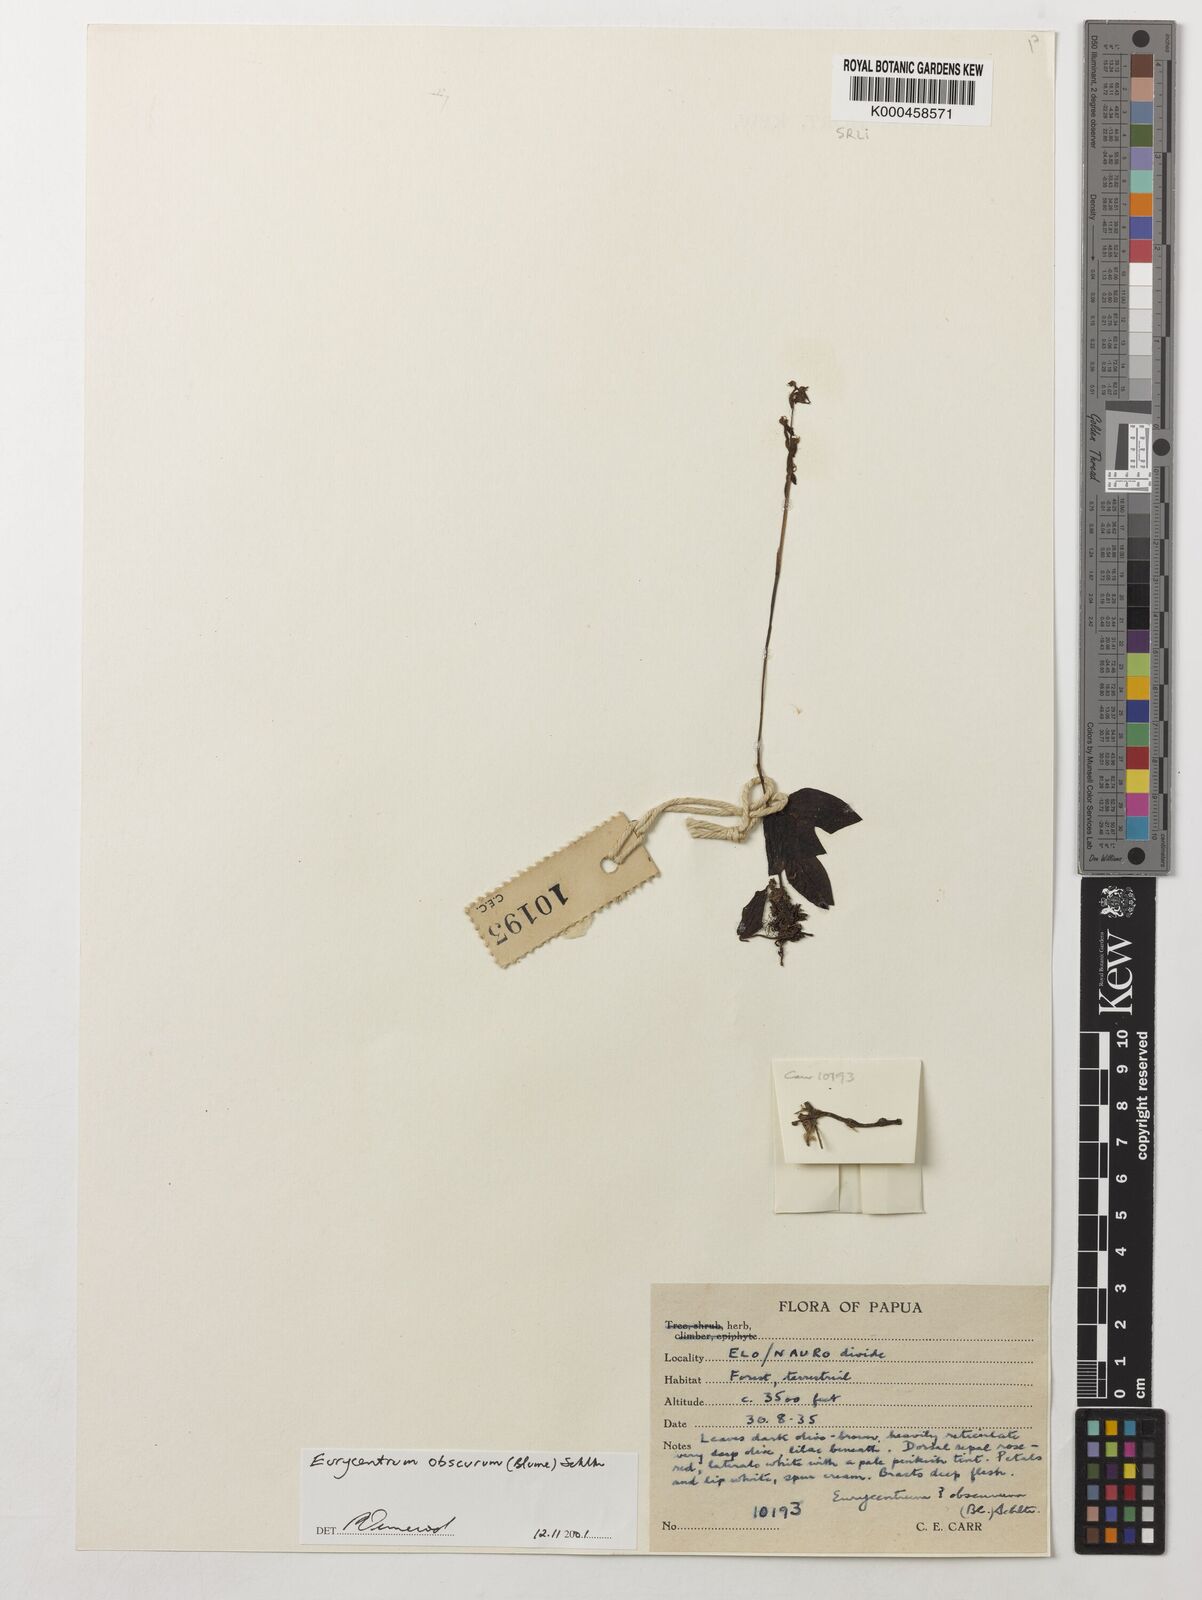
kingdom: Plantae
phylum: Tracheophyta
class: Liliopsida
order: Asparagales
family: Orchidaceae
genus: Eurycentrum
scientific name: Eurycentrum obscurum
